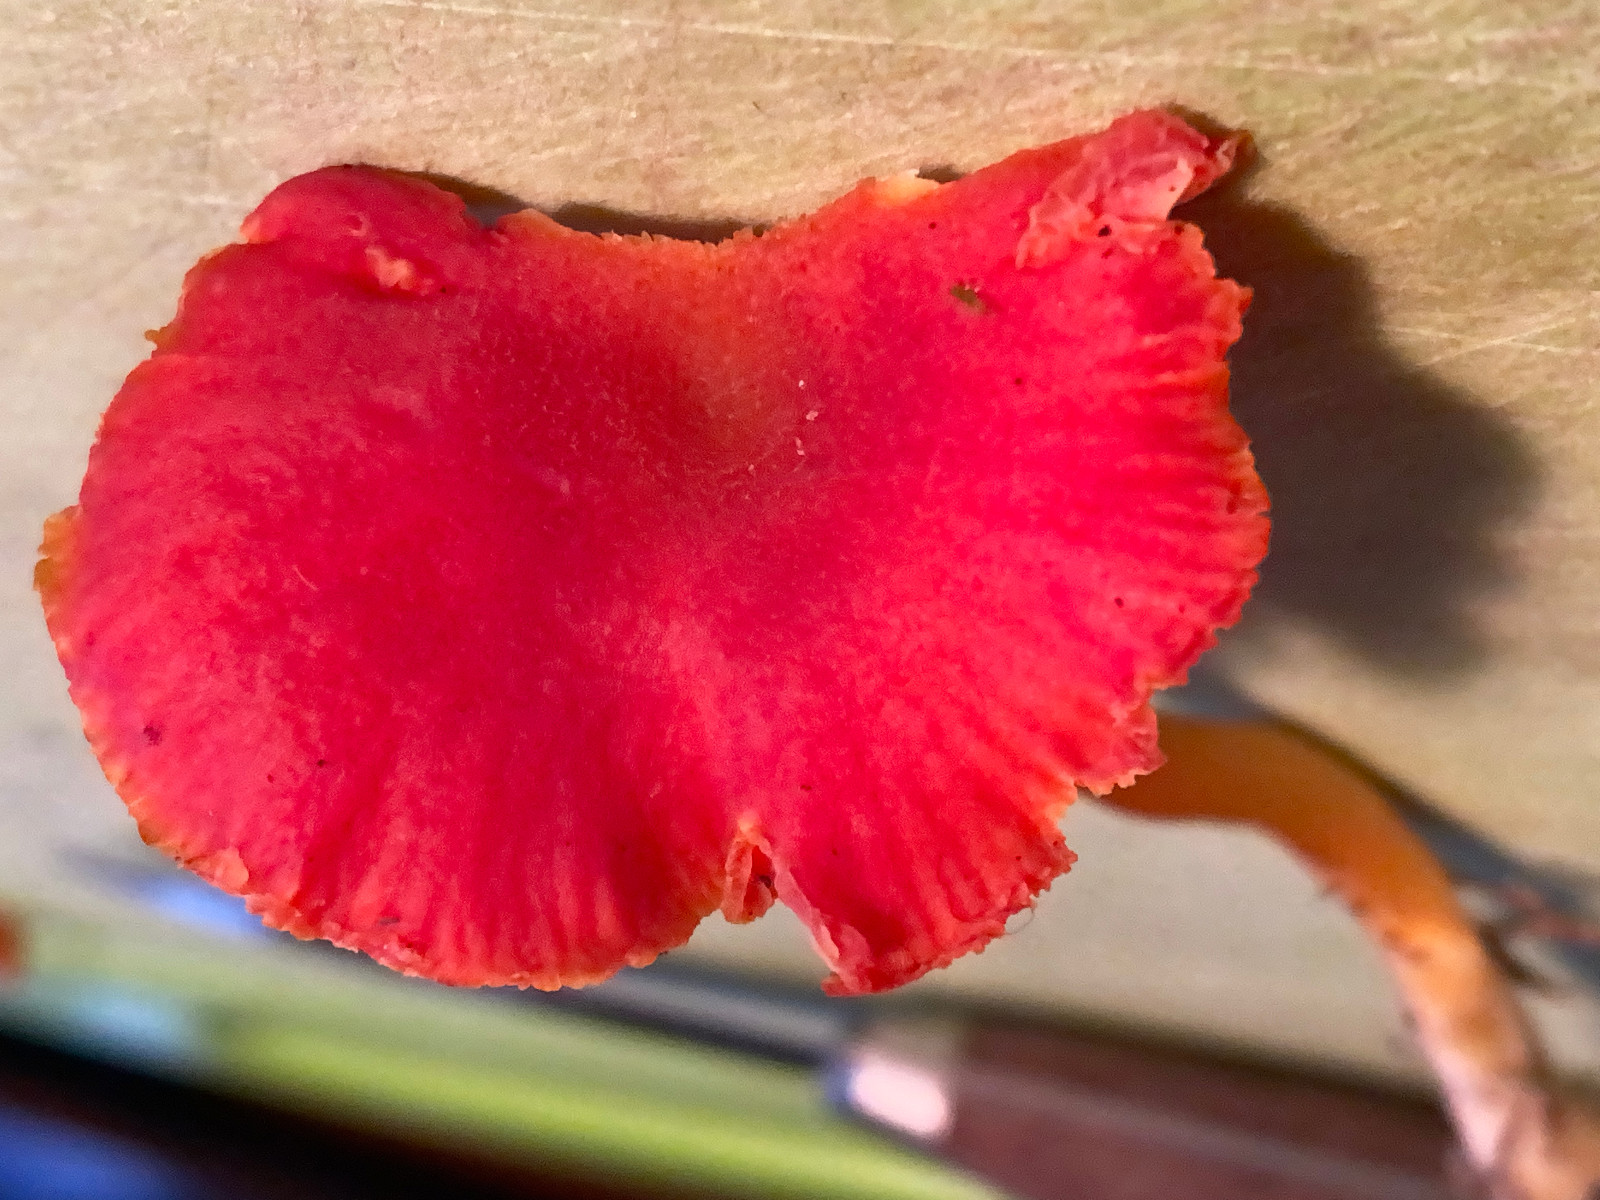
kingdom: Fungi
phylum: Basidiomycota
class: Agaricomycetes
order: Agaricales
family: Hygrophoraceae
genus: Hygrocybe
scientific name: Hygrocybe miniata
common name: mønje-vokshat
